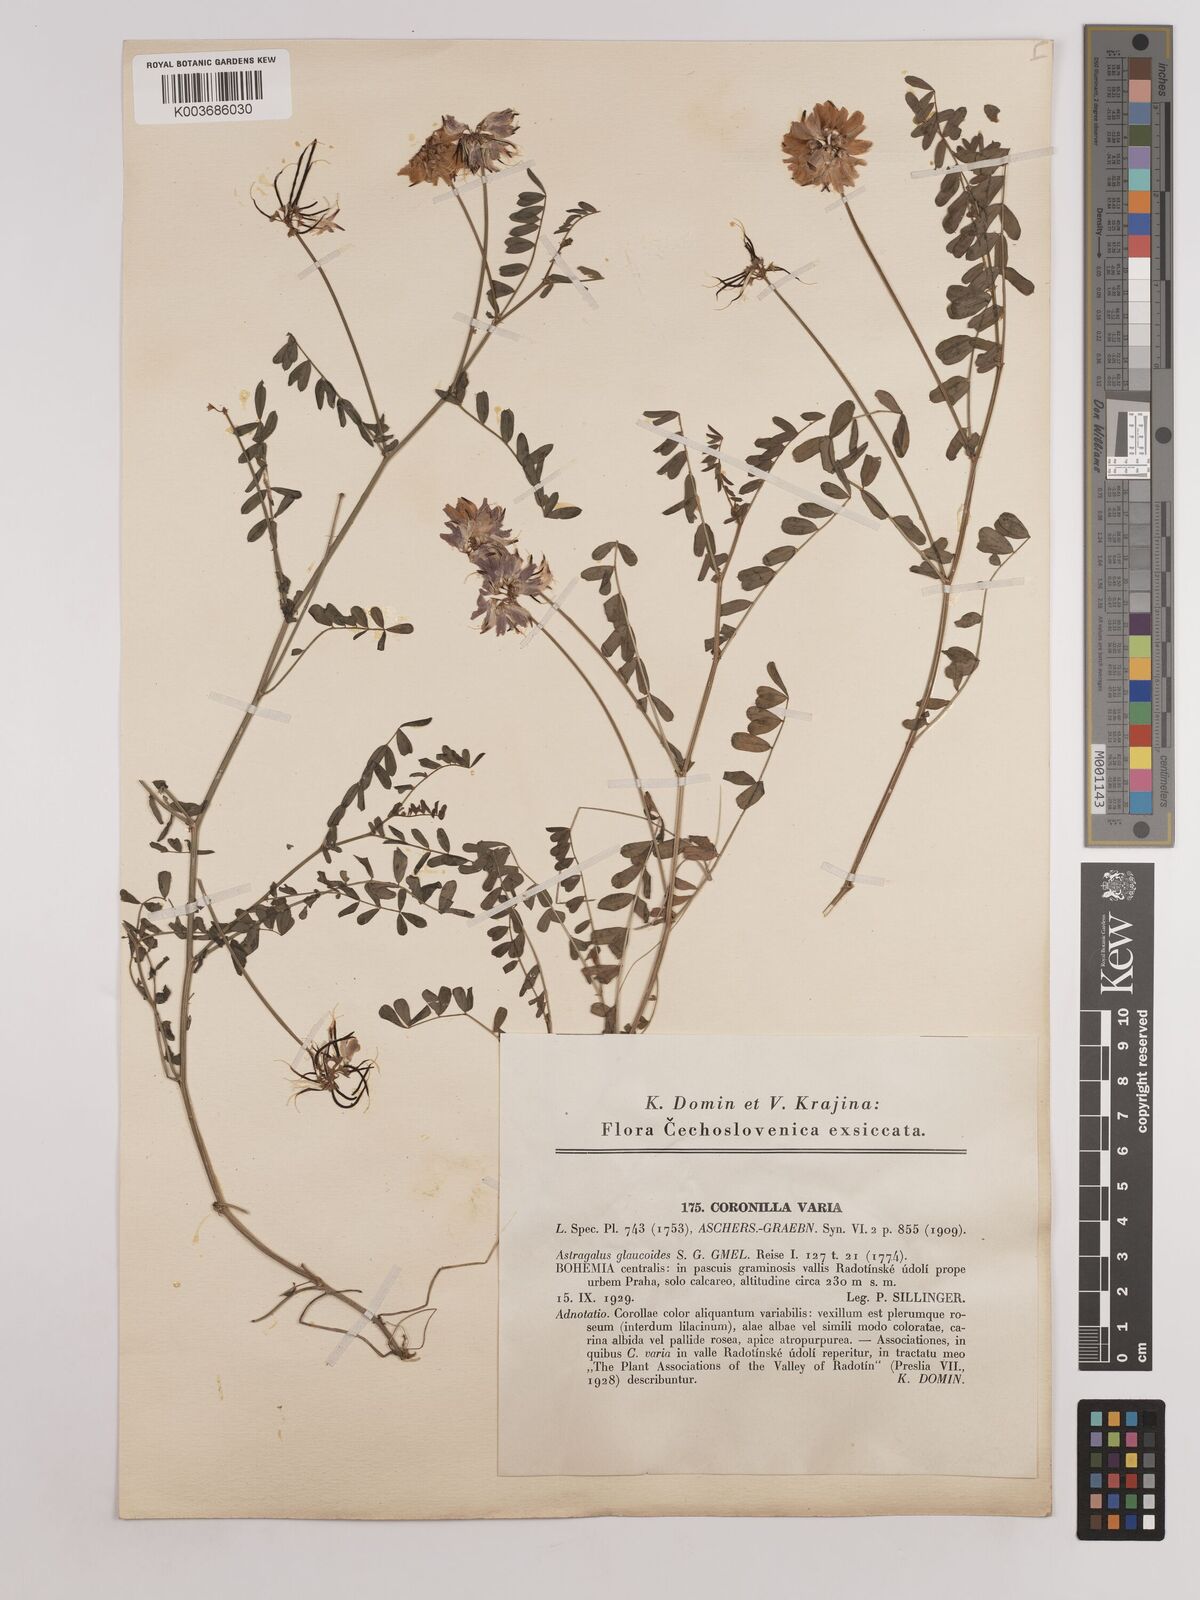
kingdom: Plantae
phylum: Tracheophyta
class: Magnoliopsida
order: Fabales
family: Fabaceae
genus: Coronilla
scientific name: Coronilla varia
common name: Crownvetch
